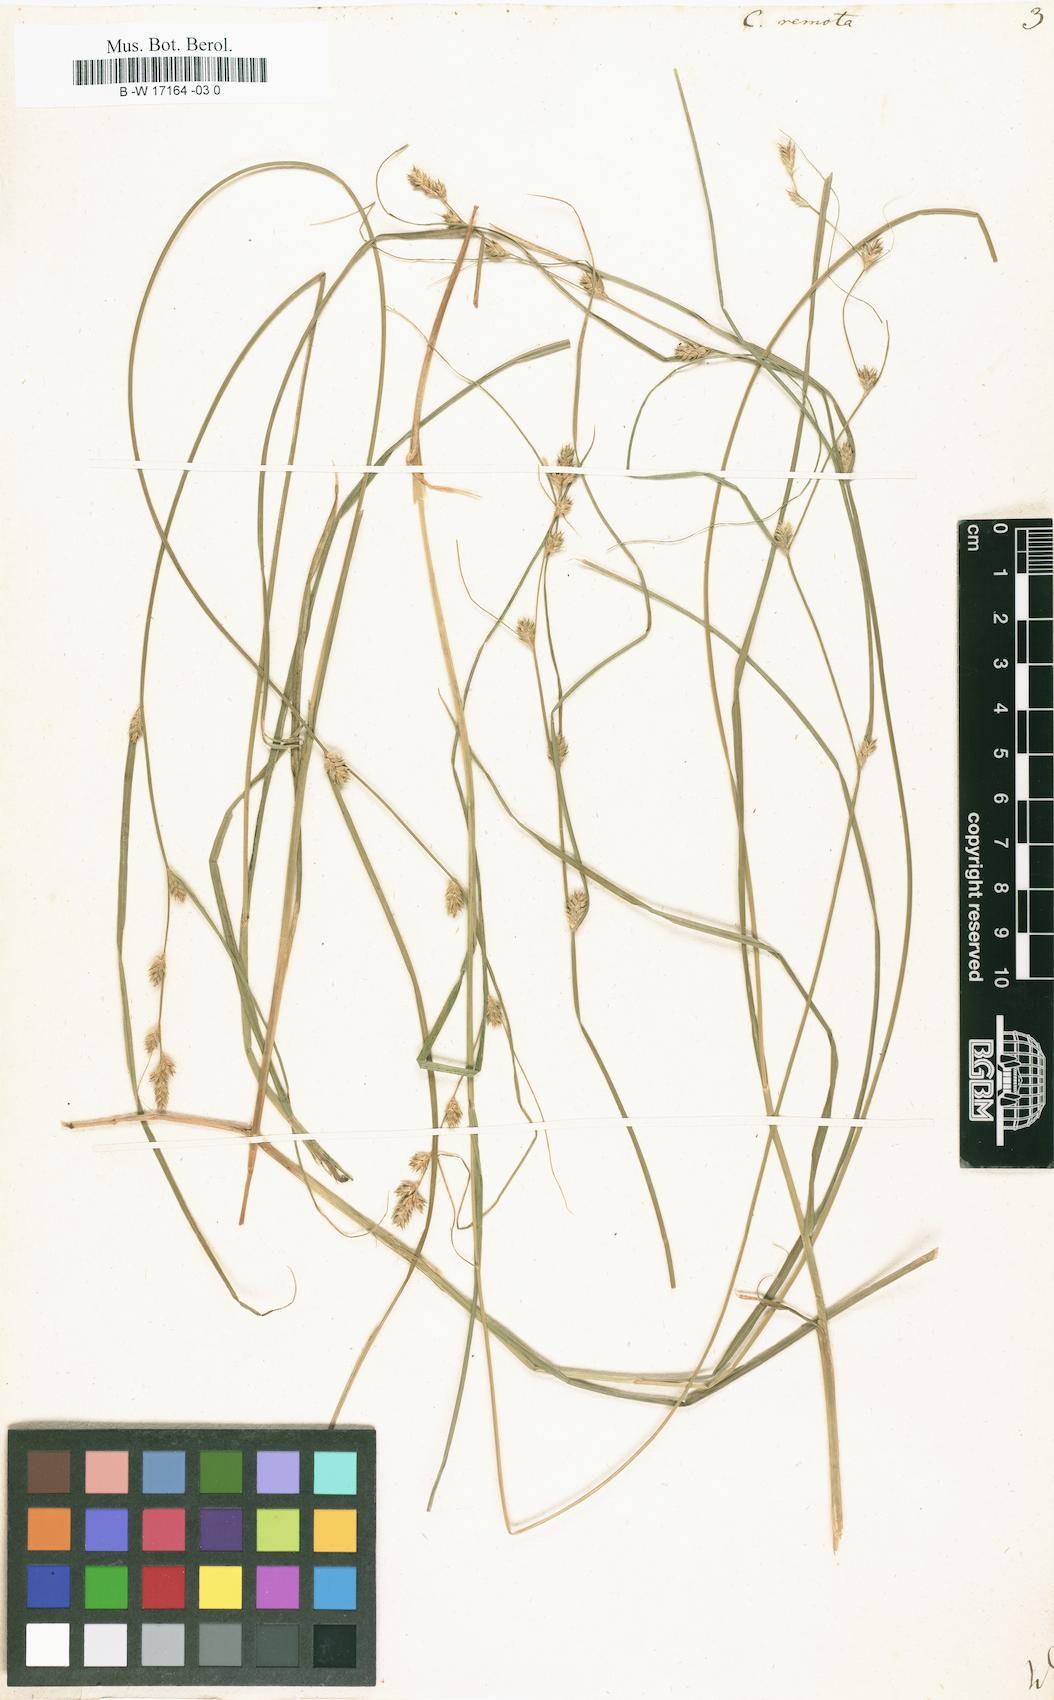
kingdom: Plantae
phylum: Tracheophyta
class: Liliopsida
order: Poales
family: Cyperaceae
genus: Carex
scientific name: Carex remota
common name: Remote sedge
